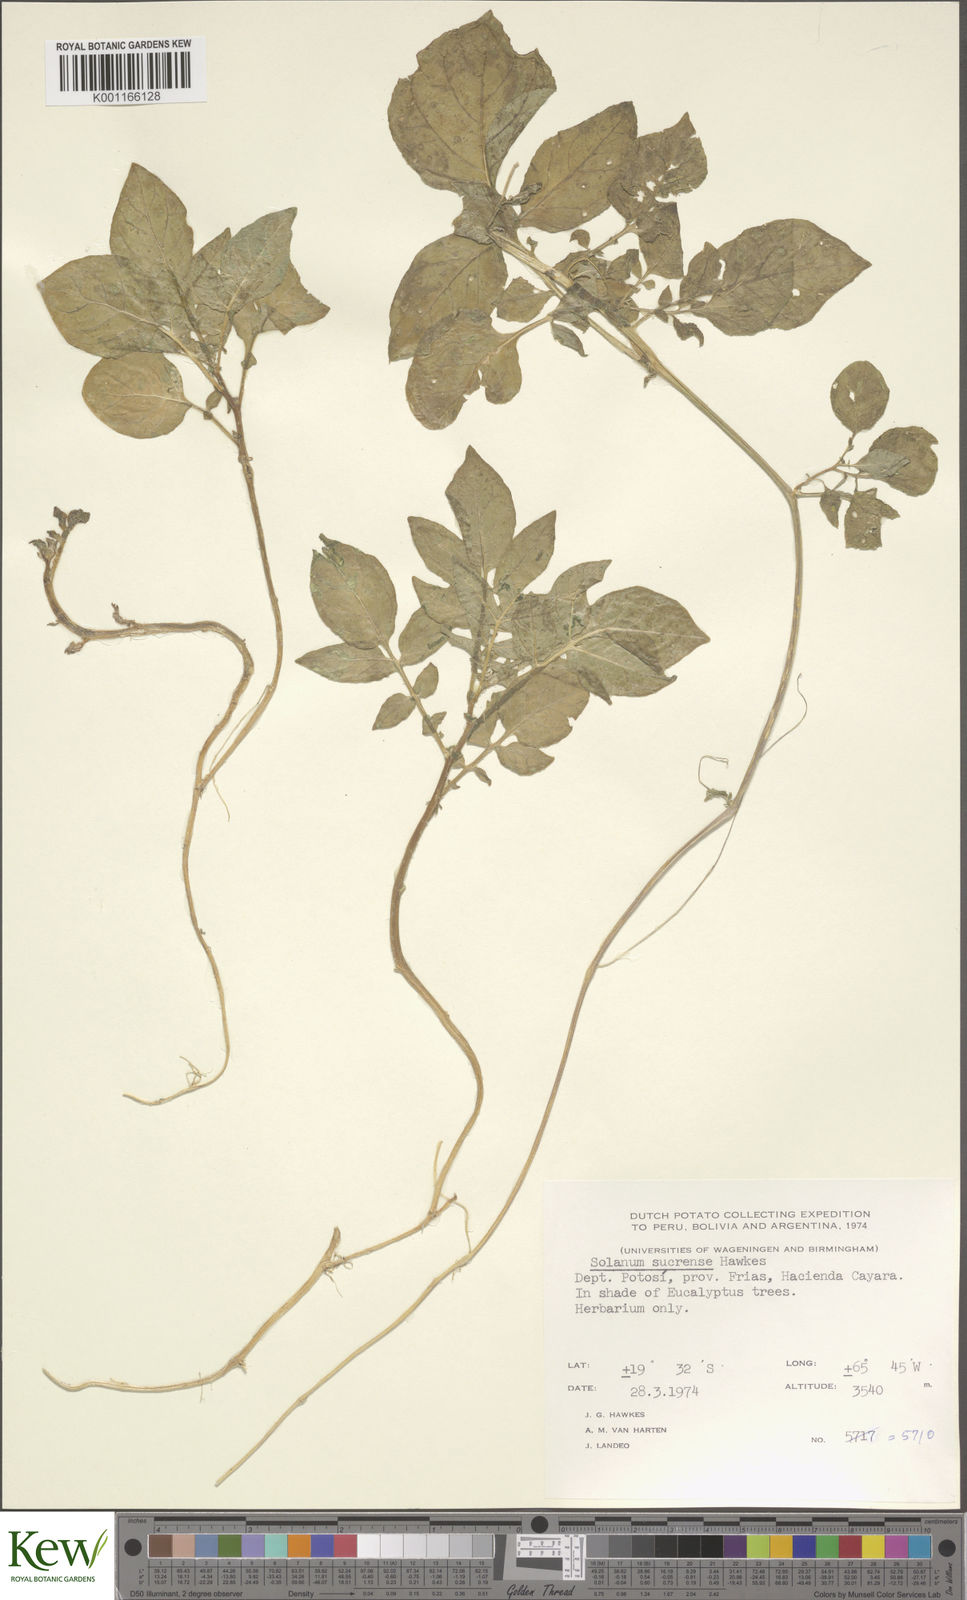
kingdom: Plantae
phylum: Tracheophyta
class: Magnoliopsida
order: Solanales
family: Solanaceae
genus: Solanum
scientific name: Solanum brevicaule
